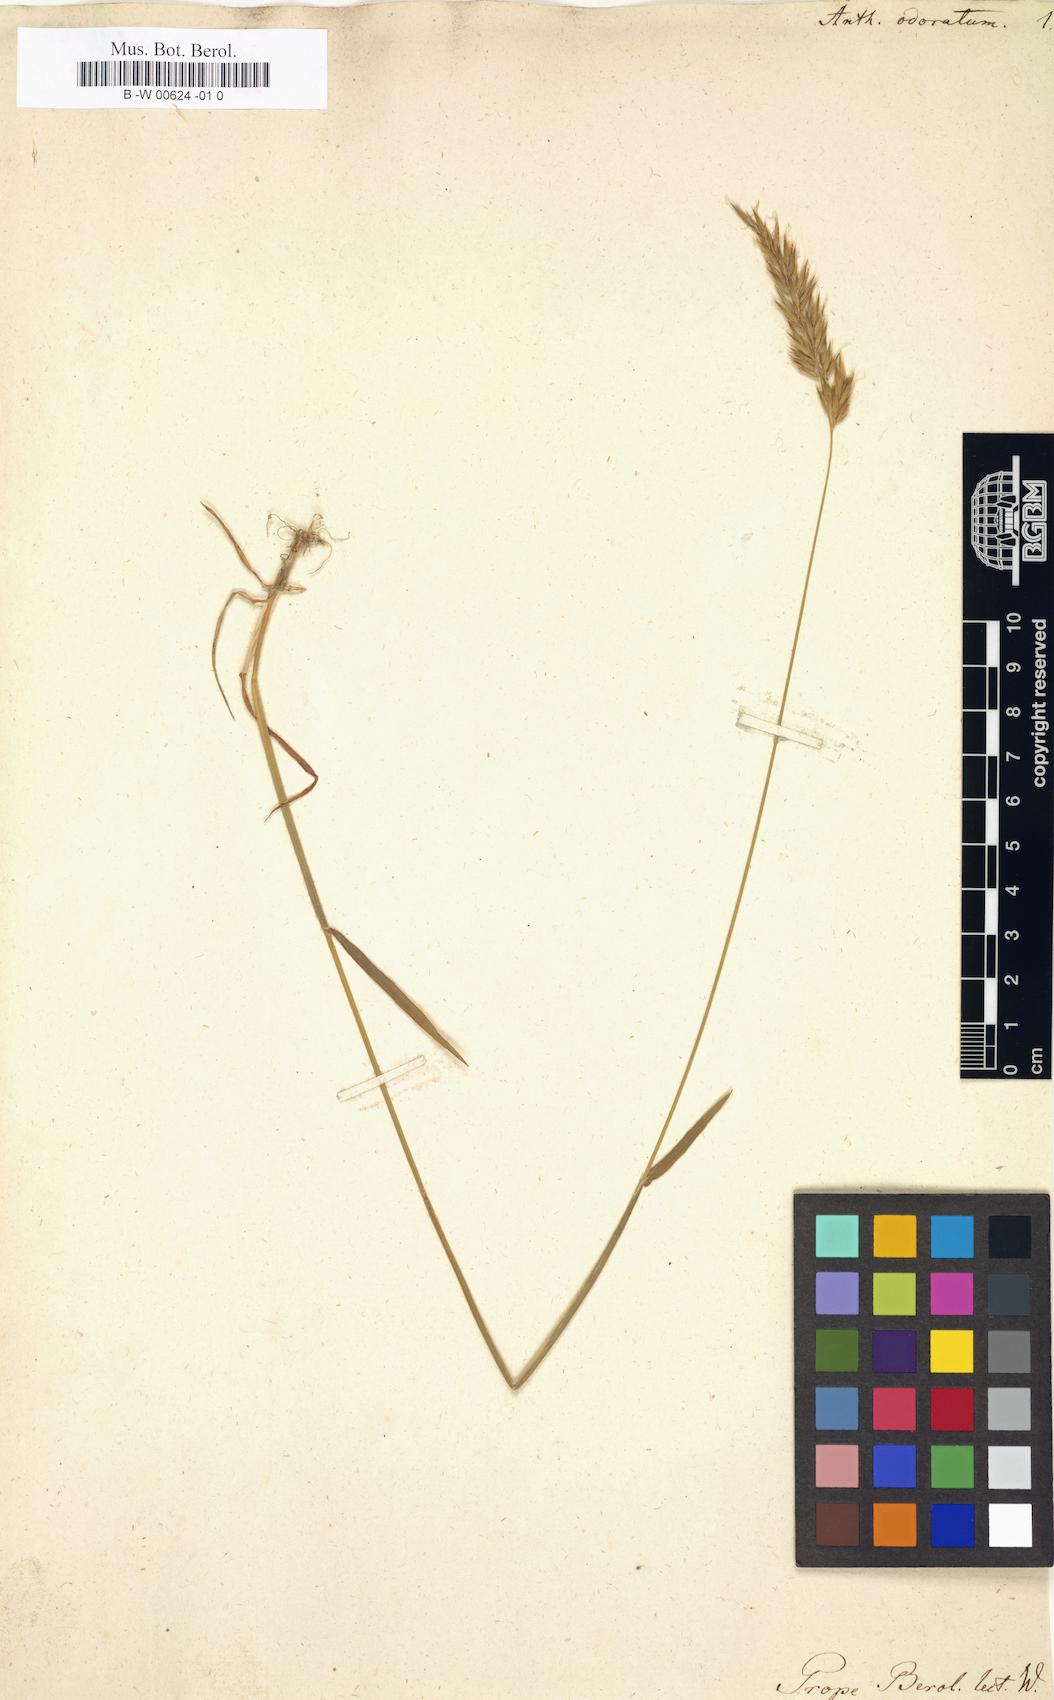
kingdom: Plantae
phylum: Tracheophyta
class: Liliopsida
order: Poales
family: Poaceae
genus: Anthoxanthum
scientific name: Anthoxanthum odoratum
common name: Sweet vernalgrass
